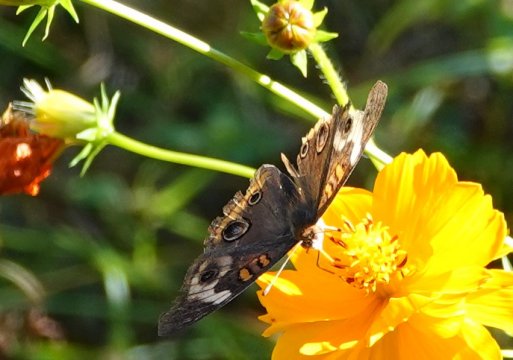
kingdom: Animalia
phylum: Arthropoda
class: Insecta
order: Lepidoptera
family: Nymphalidae
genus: Junonia
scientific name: Junonia coenia
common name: Common Buckeye
